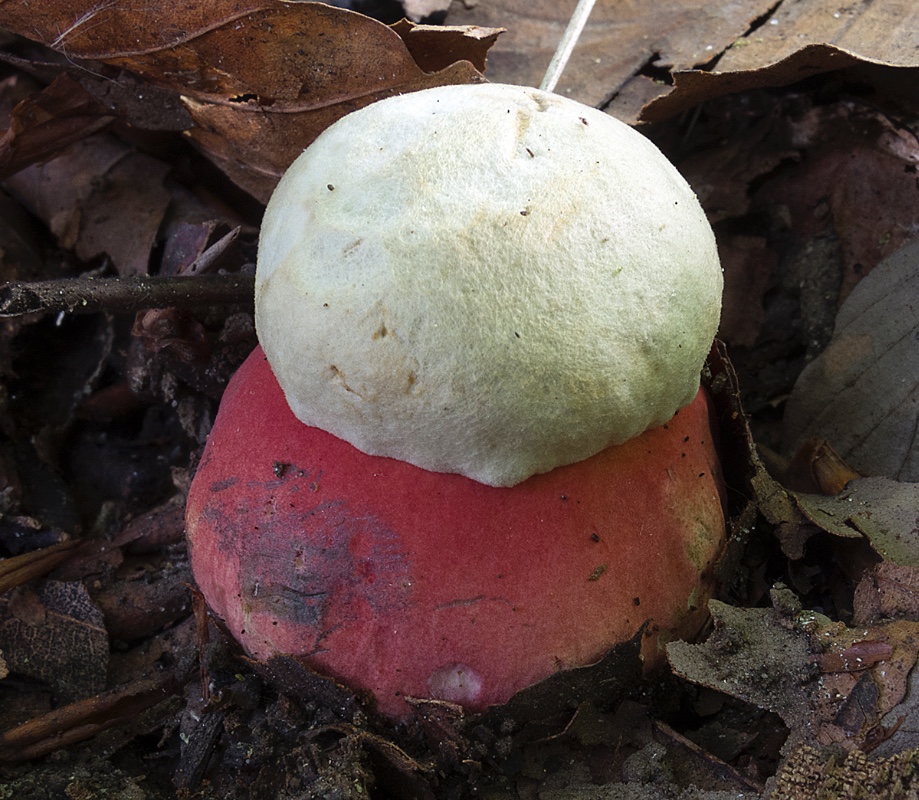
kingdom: Fungi
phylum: Basidiomycota
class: Agaricomycetes
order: Boletales
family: Boletaceae
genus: Rubroboletus
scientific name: Rubroboletus satanas
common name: Satans rørhat
